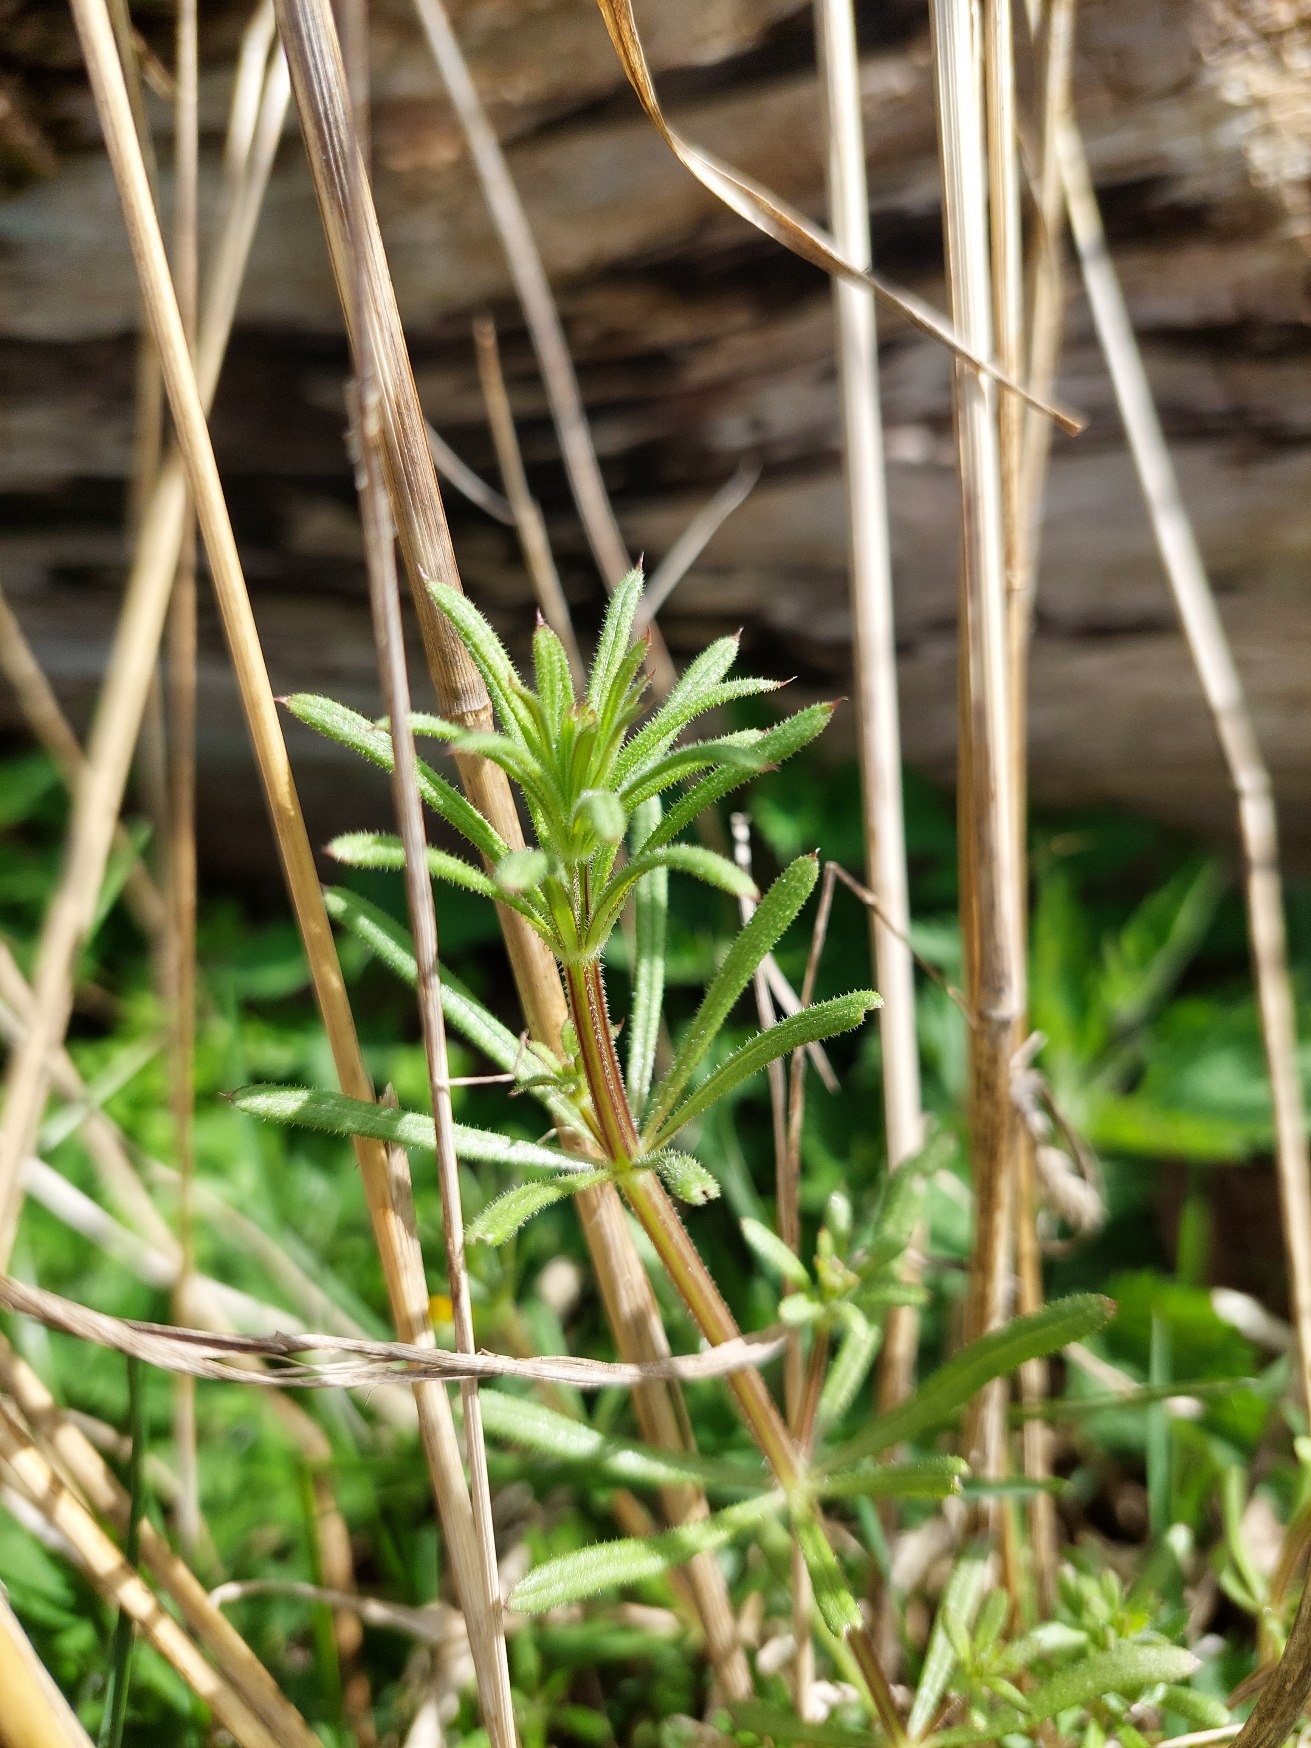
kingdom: Plantae
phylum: Tracheophyta
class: Magnoliopsida
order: Gentianales
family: Rubiaceae
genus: Galium
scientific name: Galium aparine
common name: Burre-snerre
